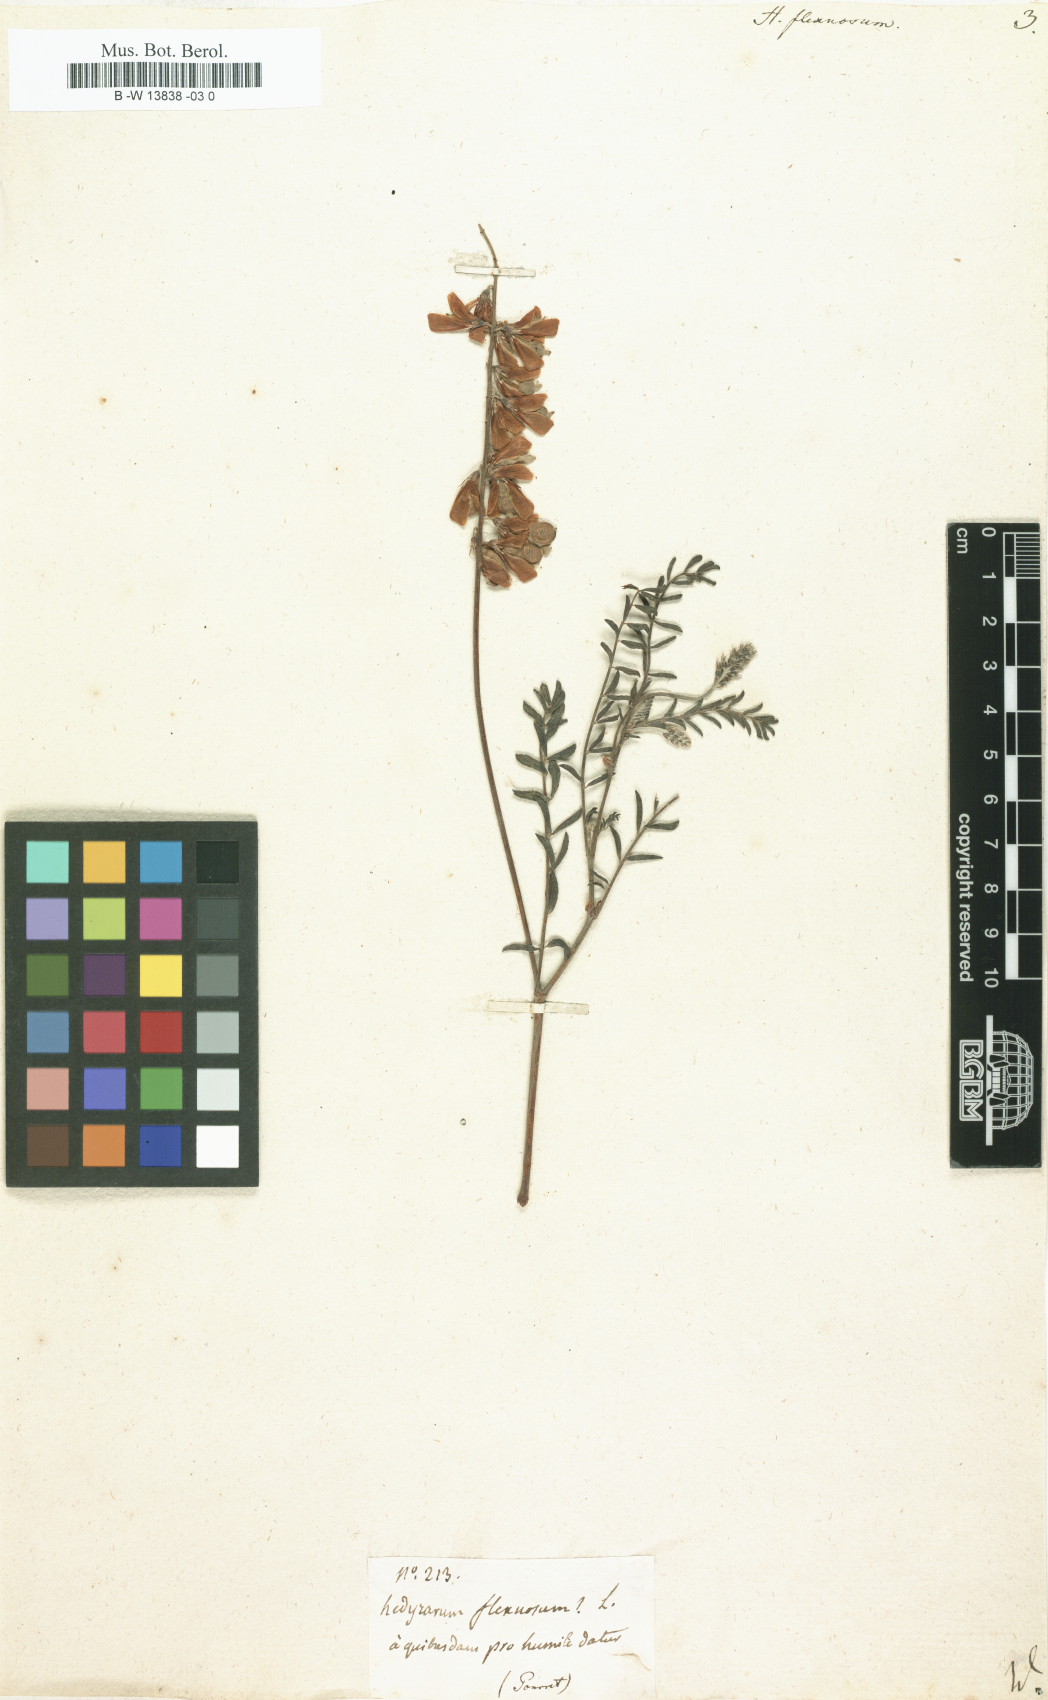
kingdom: Plantae
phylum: Tracheophyta
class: Magnoliopsida
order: Fabales
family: Fabaceae
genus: Sulla
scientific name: Sulla flexuosa
